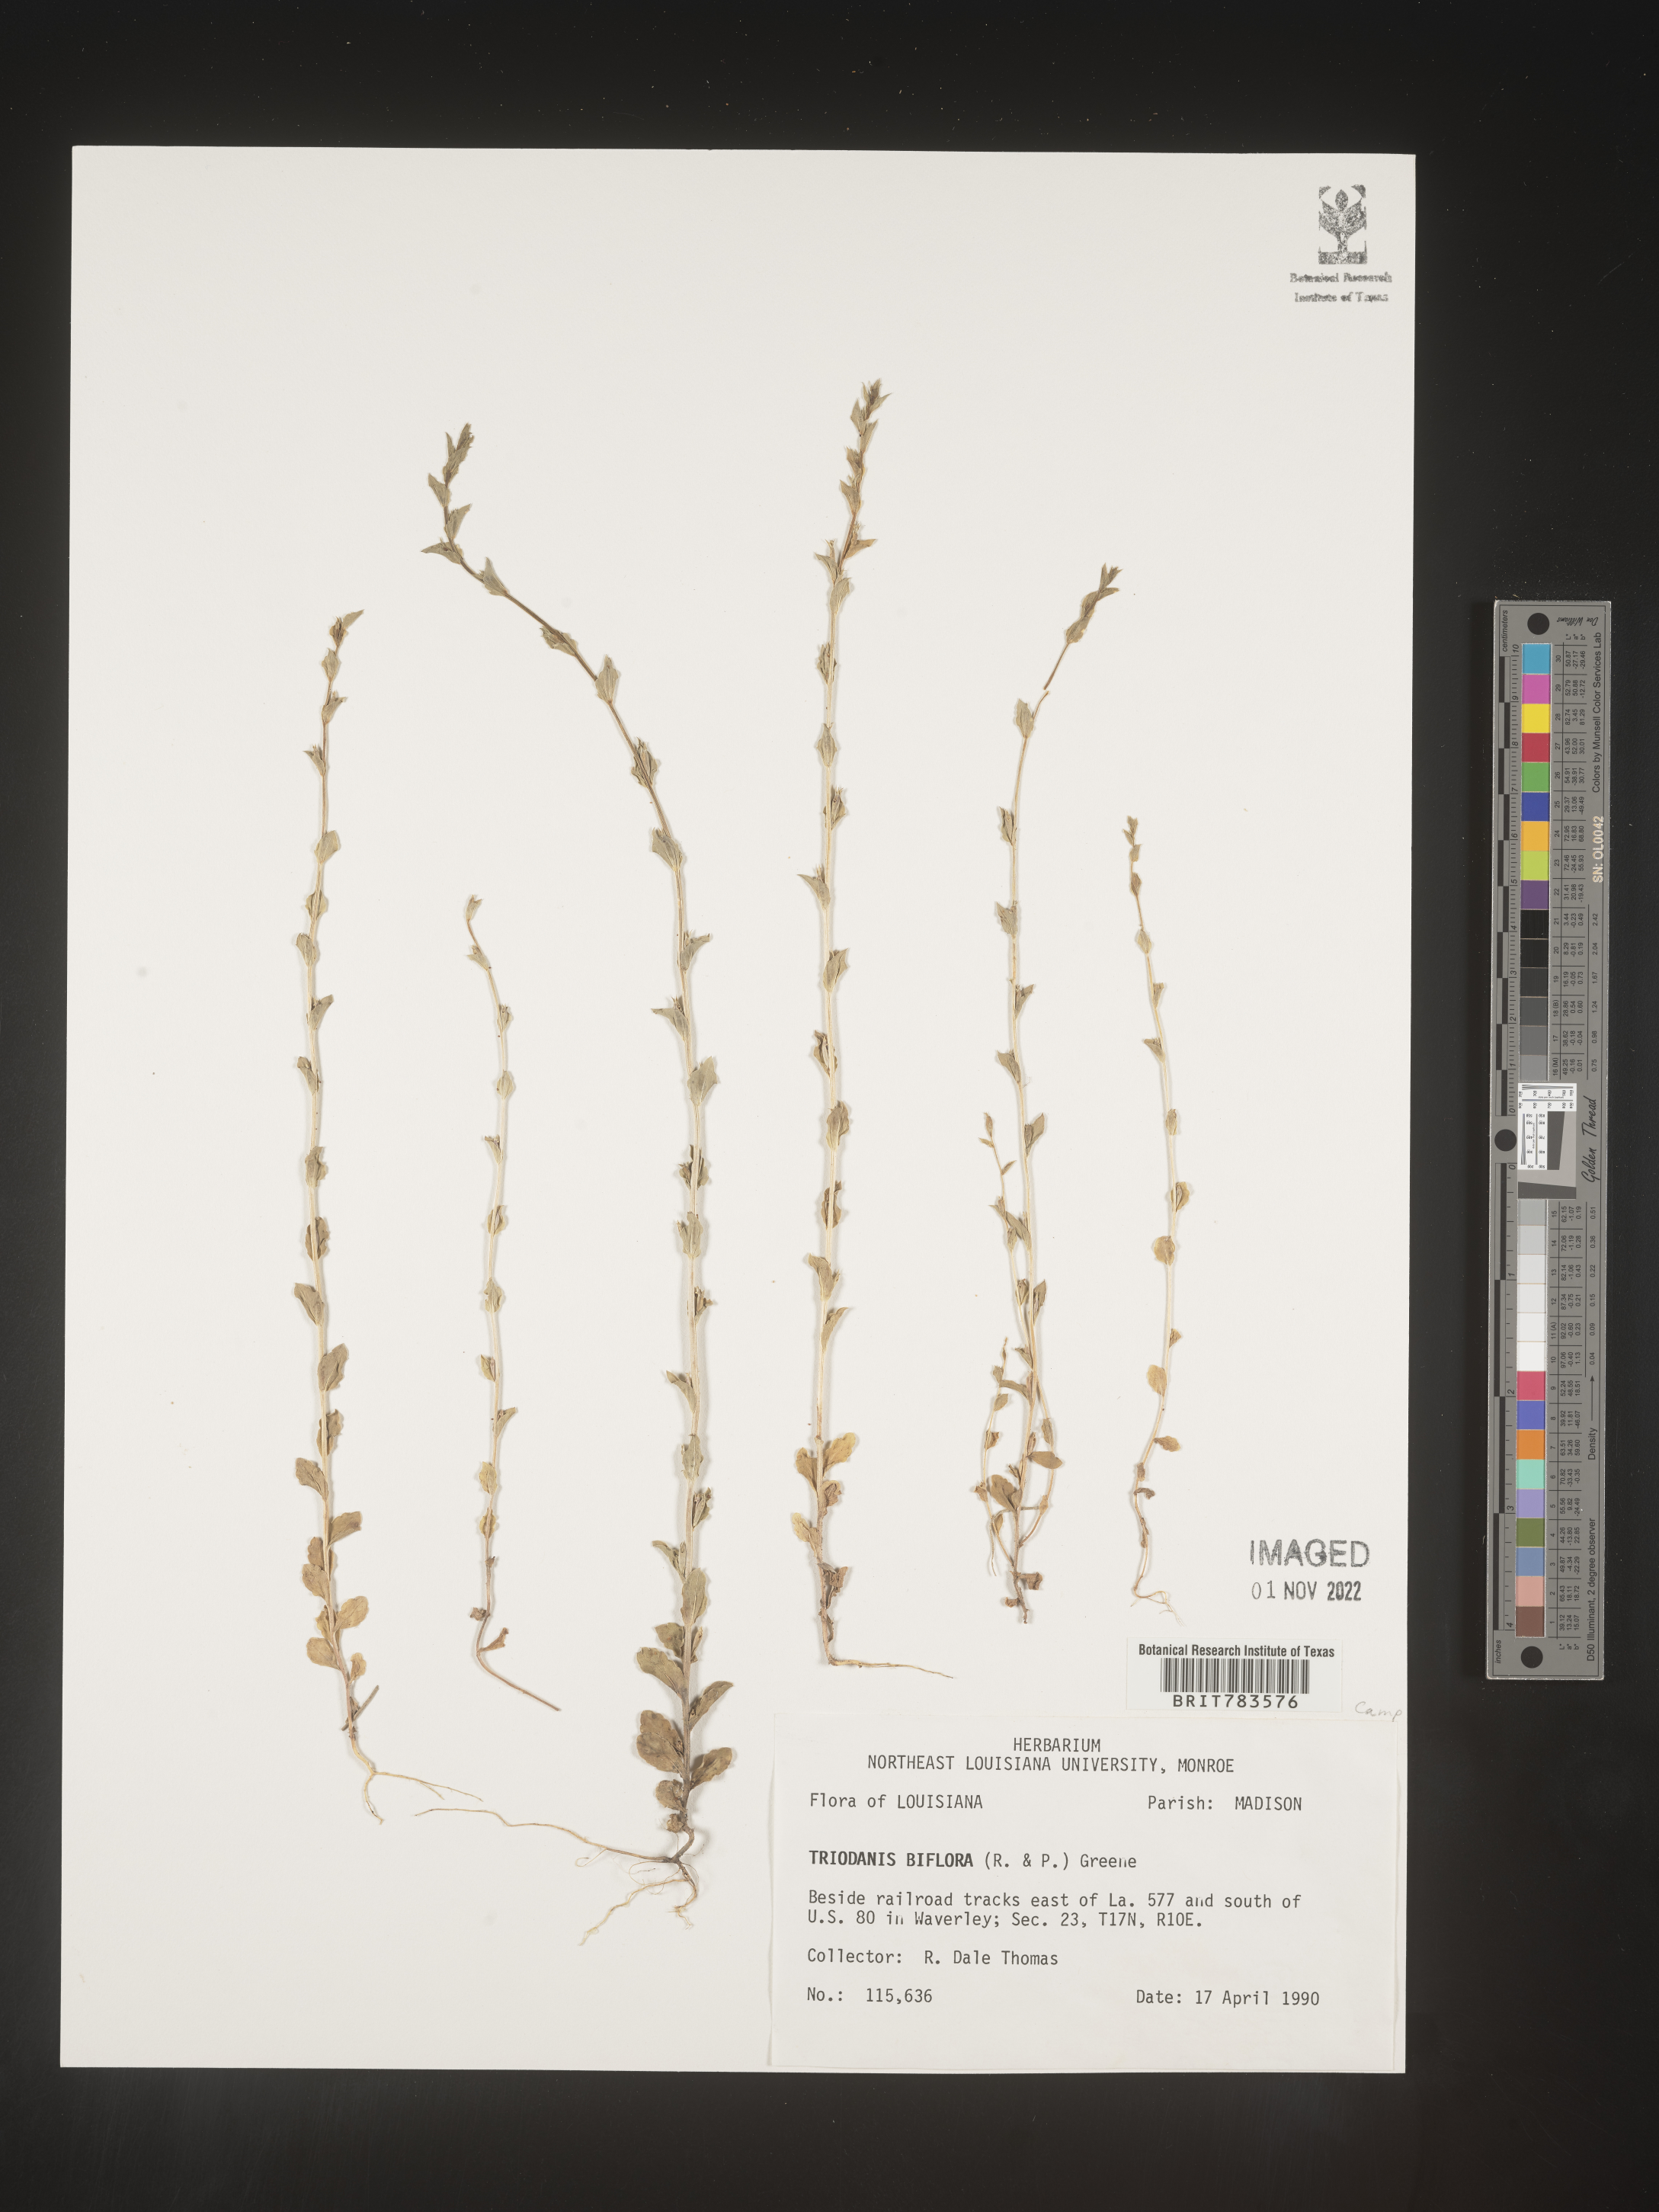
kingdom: Plantae
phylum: Tracheophyta
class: Magnoliopsida
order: Asterales
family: Campanulaceae
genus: Triodanis
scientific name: Triodanis perfoliata
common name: Clasping venus' looking-glass
